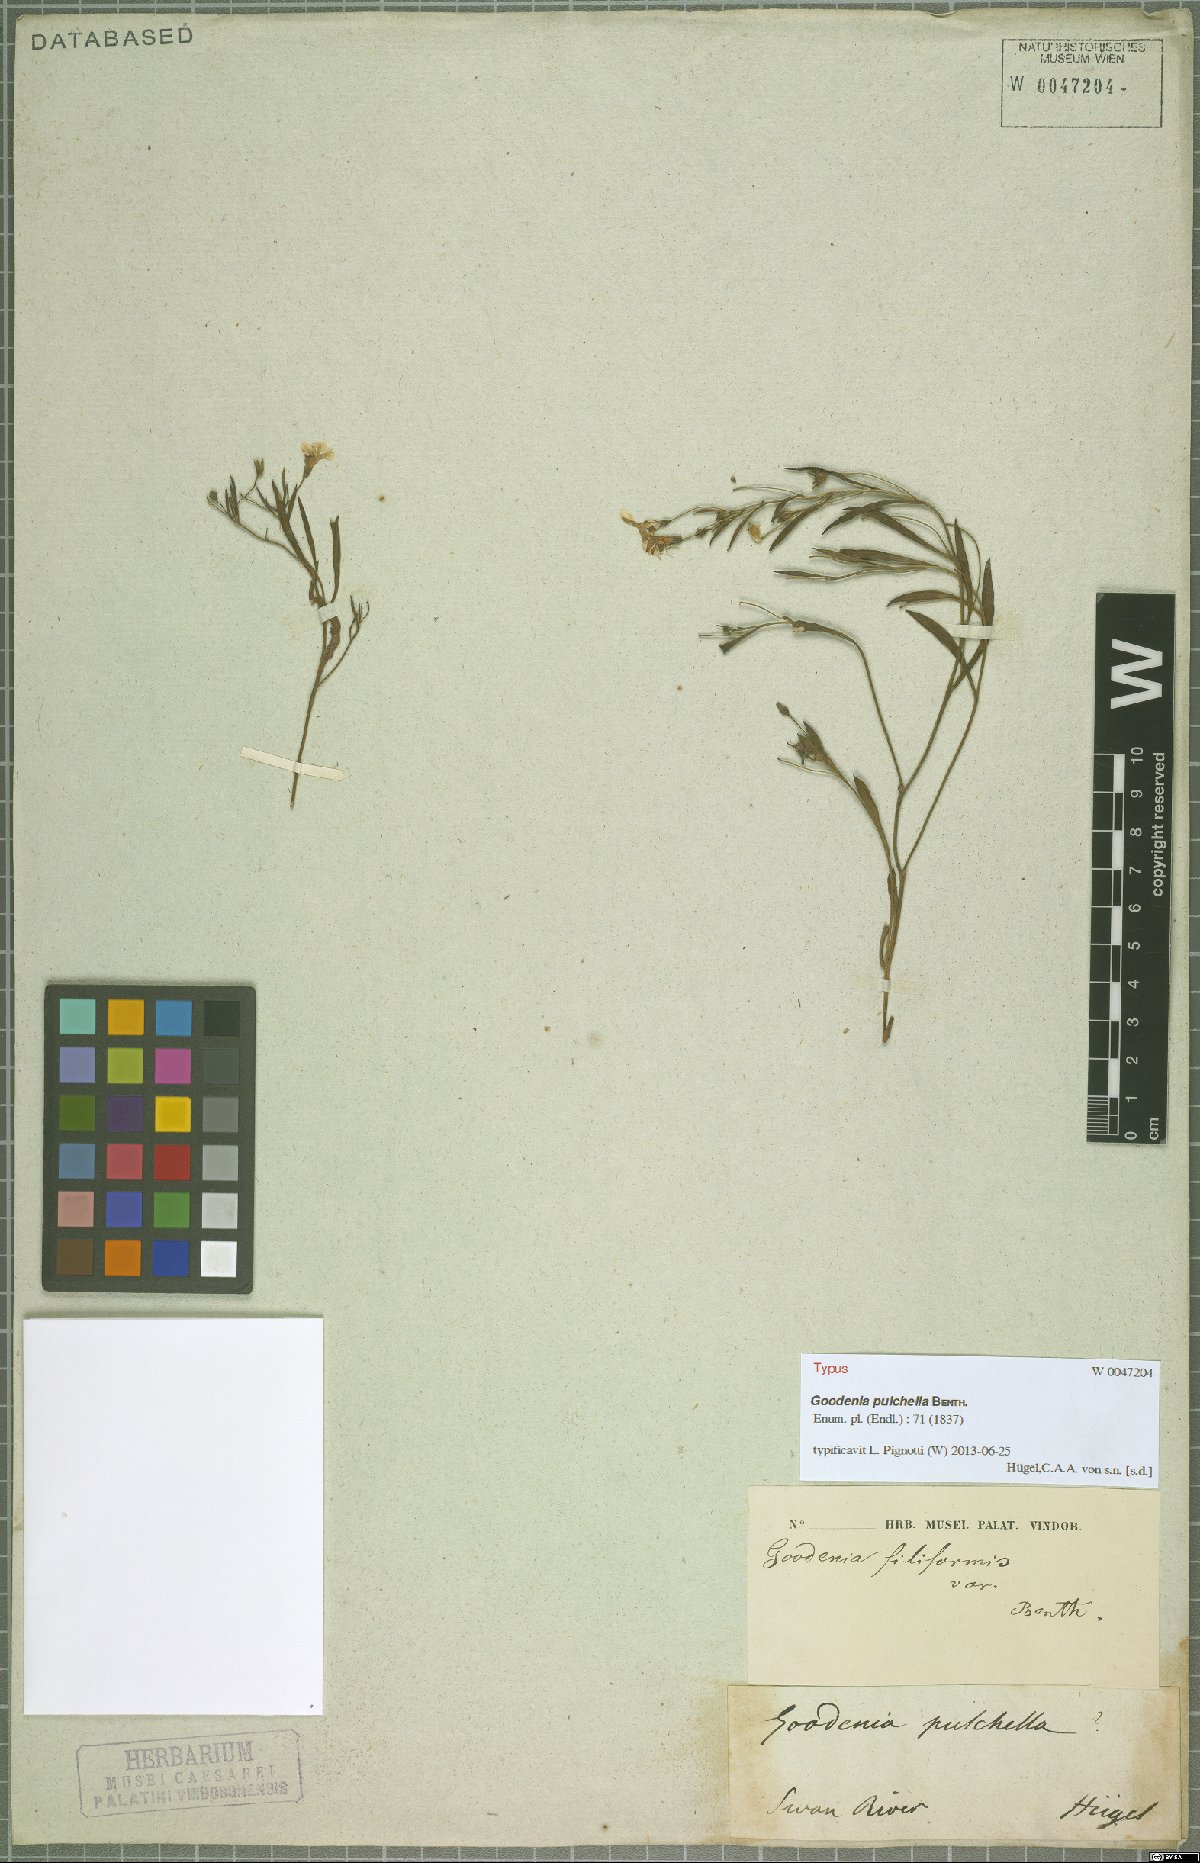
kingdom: Plantae
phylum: Tracheophyta
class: Magnoliopsida
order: Asterales
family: Goodeniaceae
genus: Goodenia
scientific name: Goodenia pulchella
